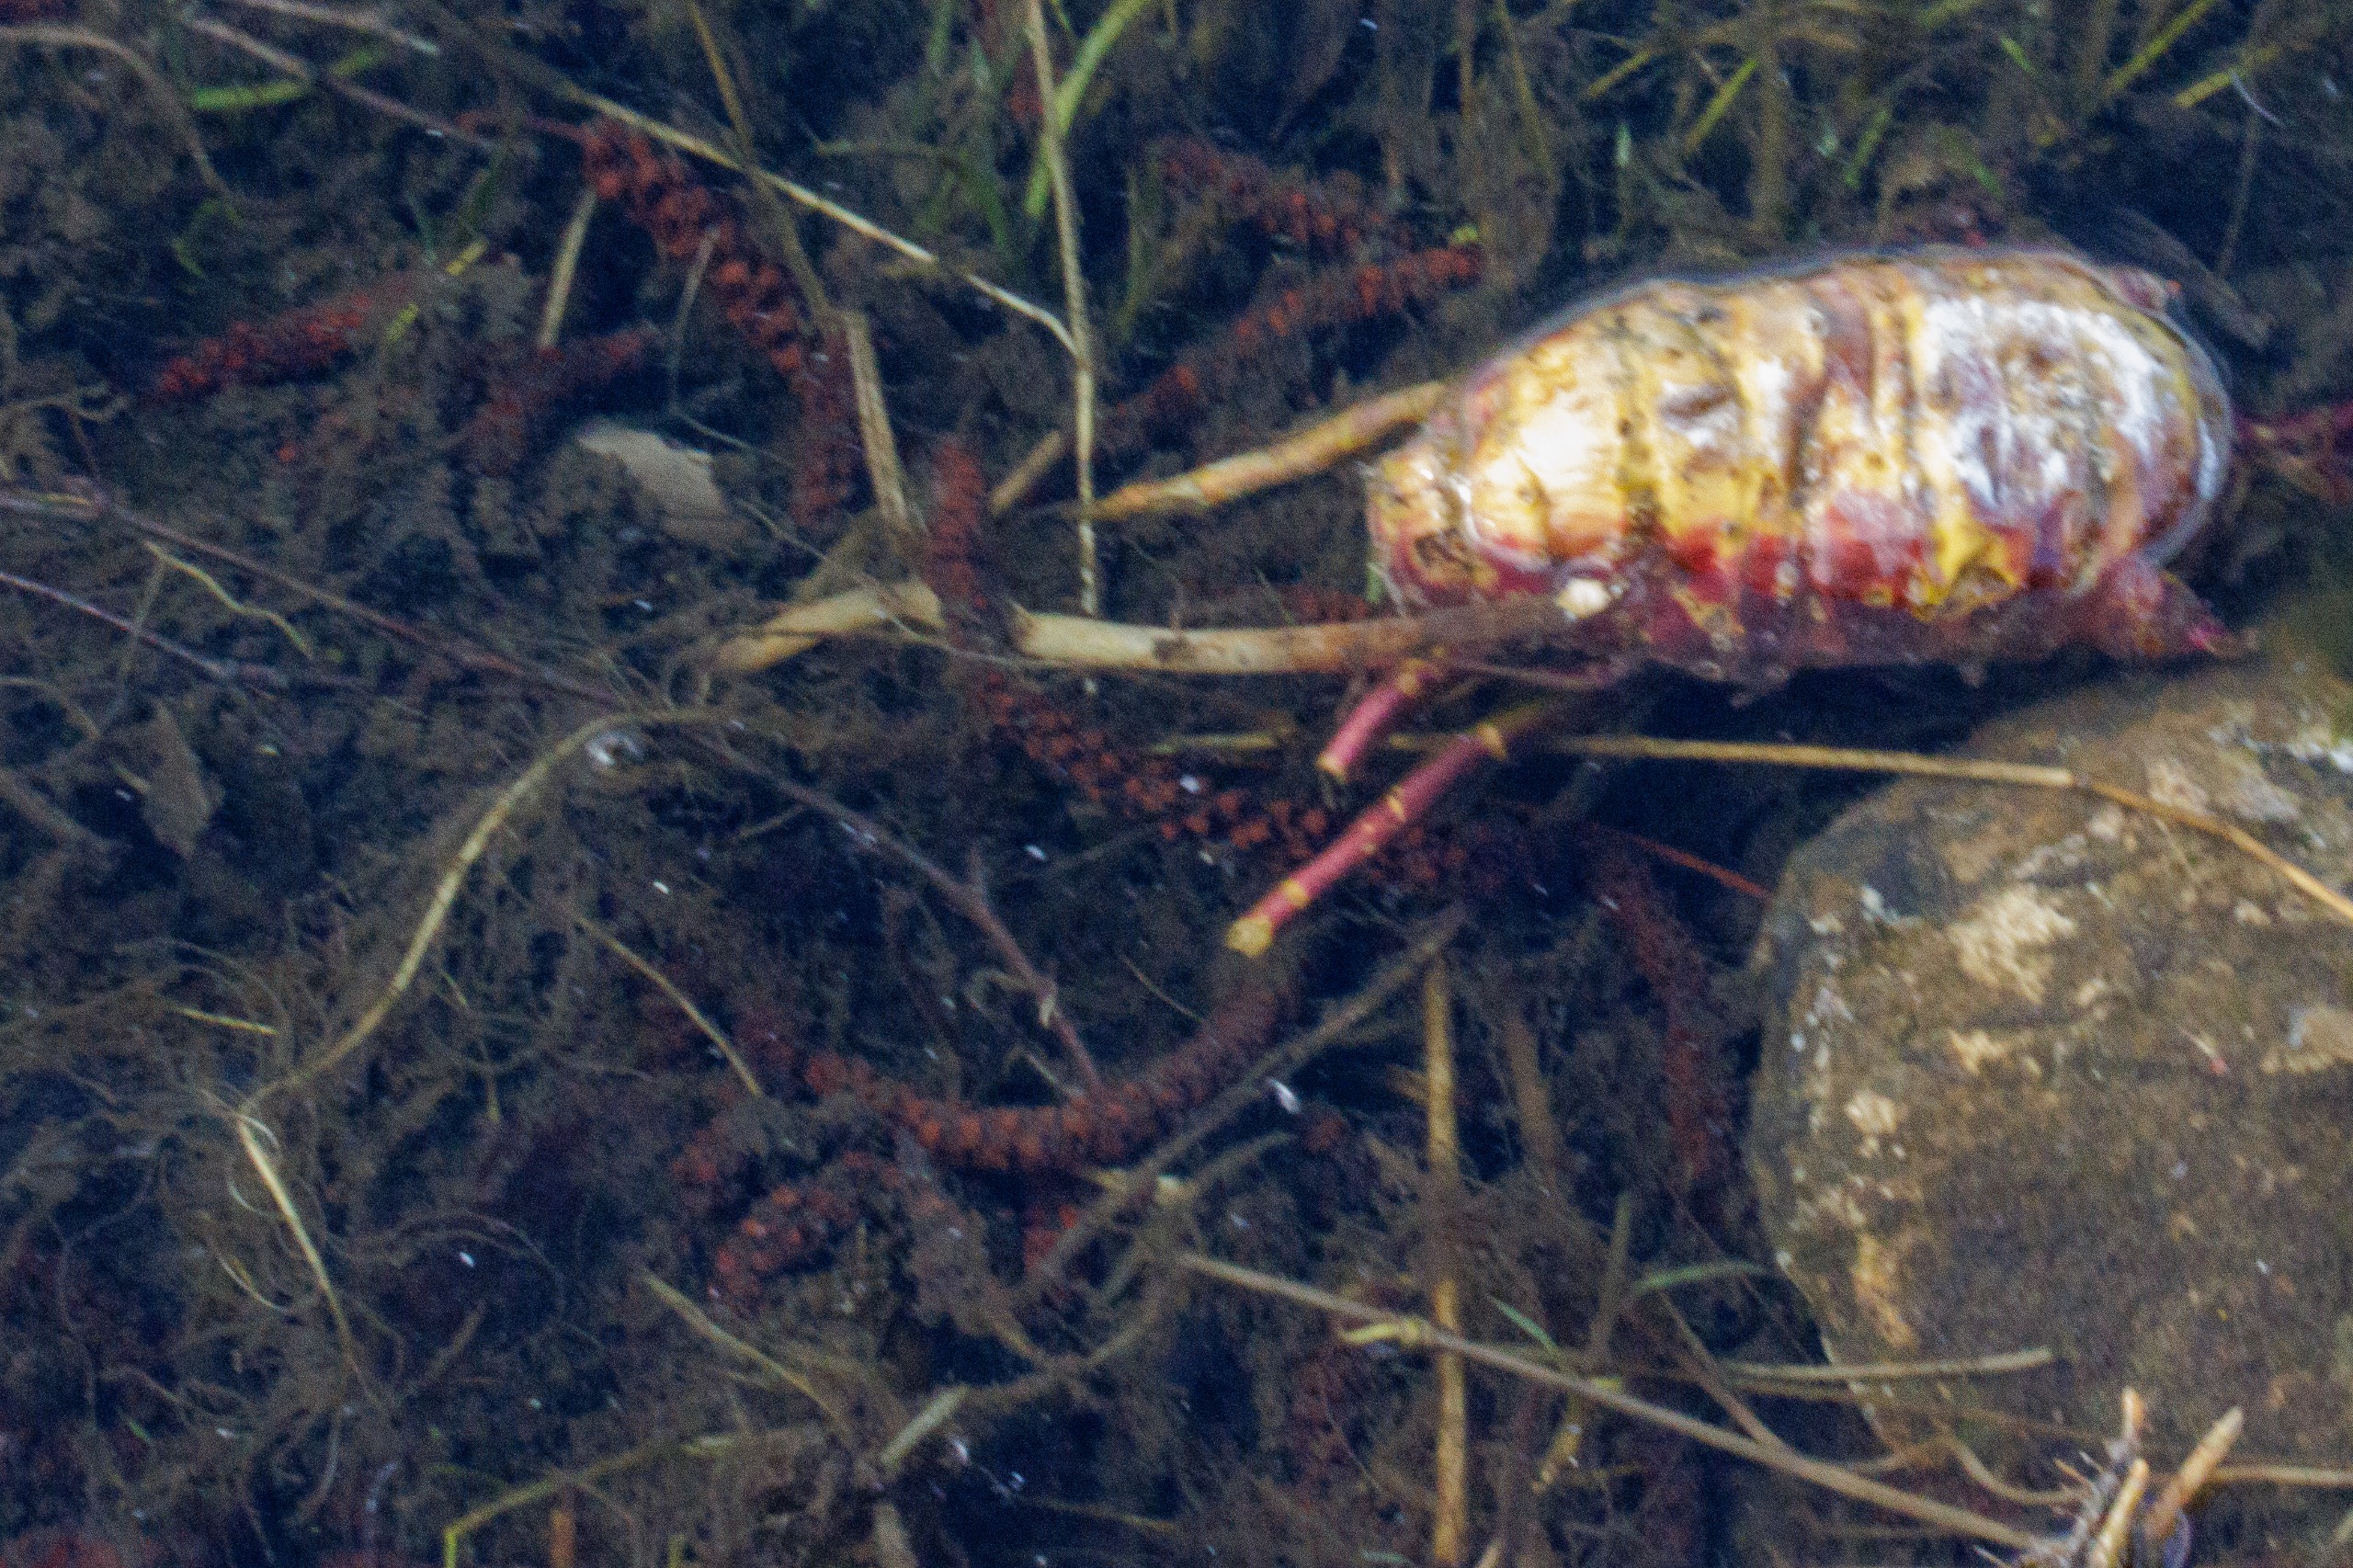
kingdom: Plantae
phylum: Tracheophyta
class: Magnoliopsida
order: Apiales
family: Apiaceae
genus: Cicuta
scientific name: Cicuta virosa
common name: Gifttyde
